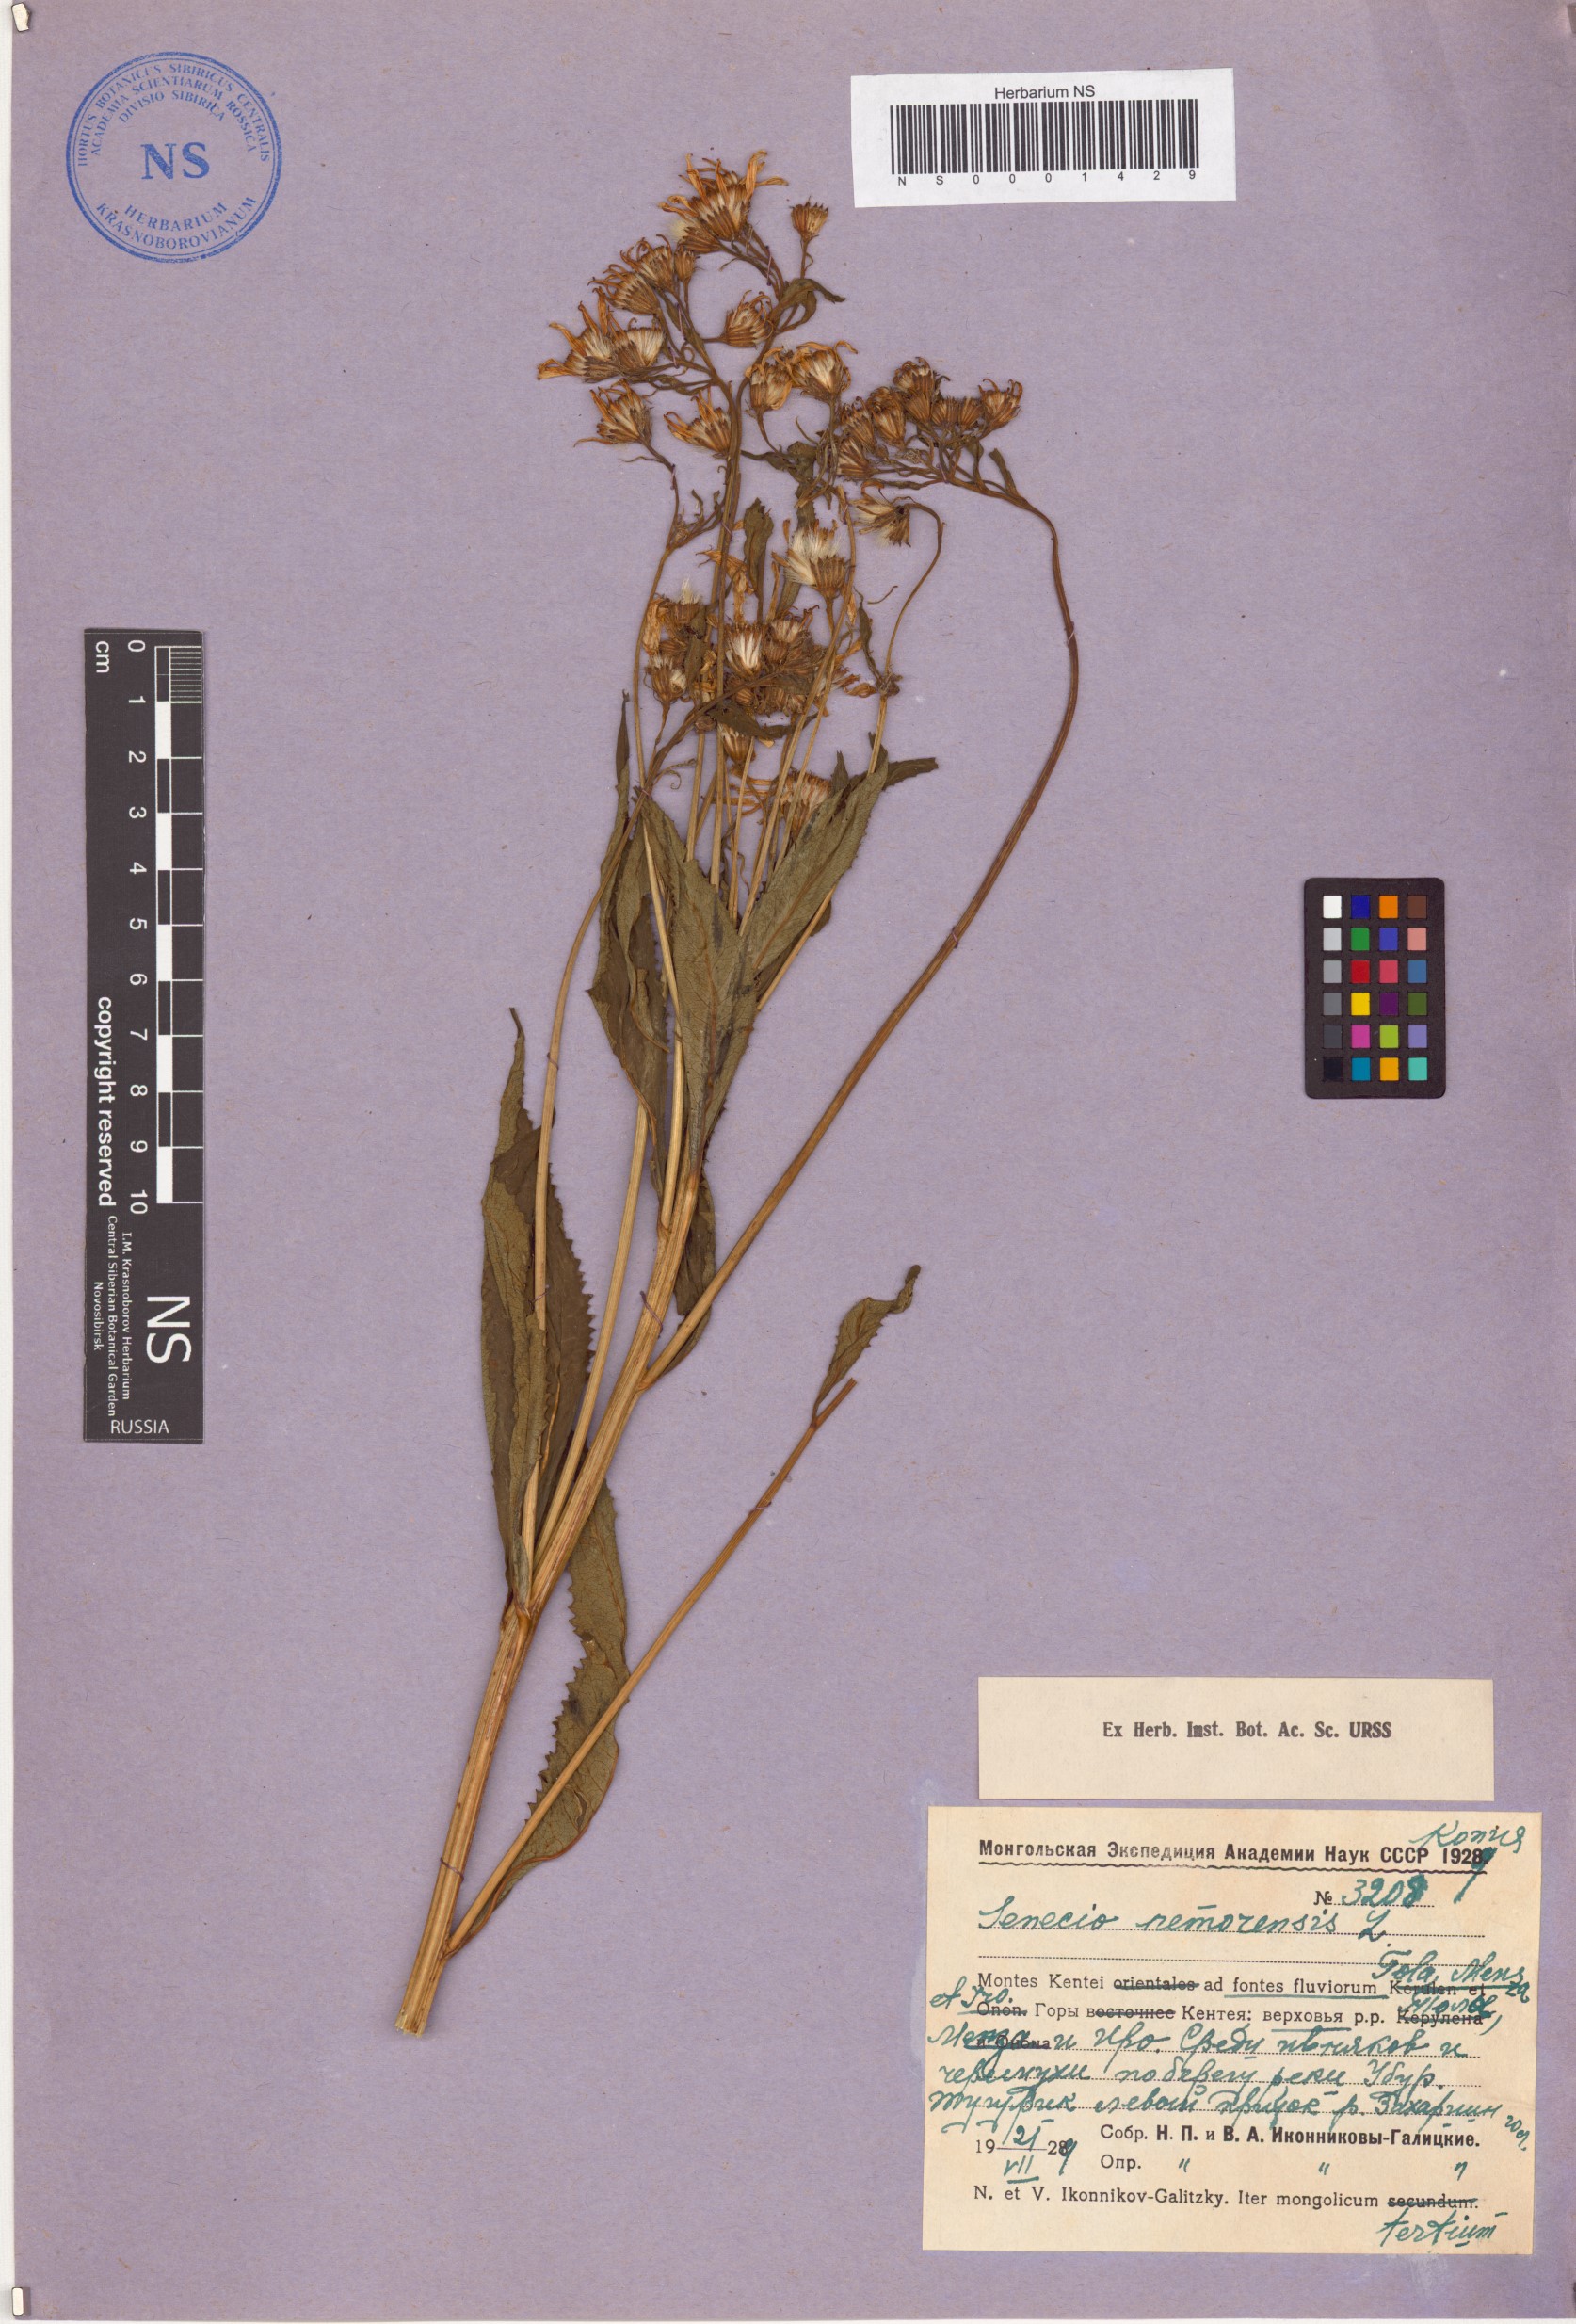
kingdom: Plantae
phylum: Tracheophyta
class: Magnoliopsida
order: Asterales
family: Asteraceae
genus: Senecio
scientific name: Senecio nemorensis
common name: Alpine ragwort
